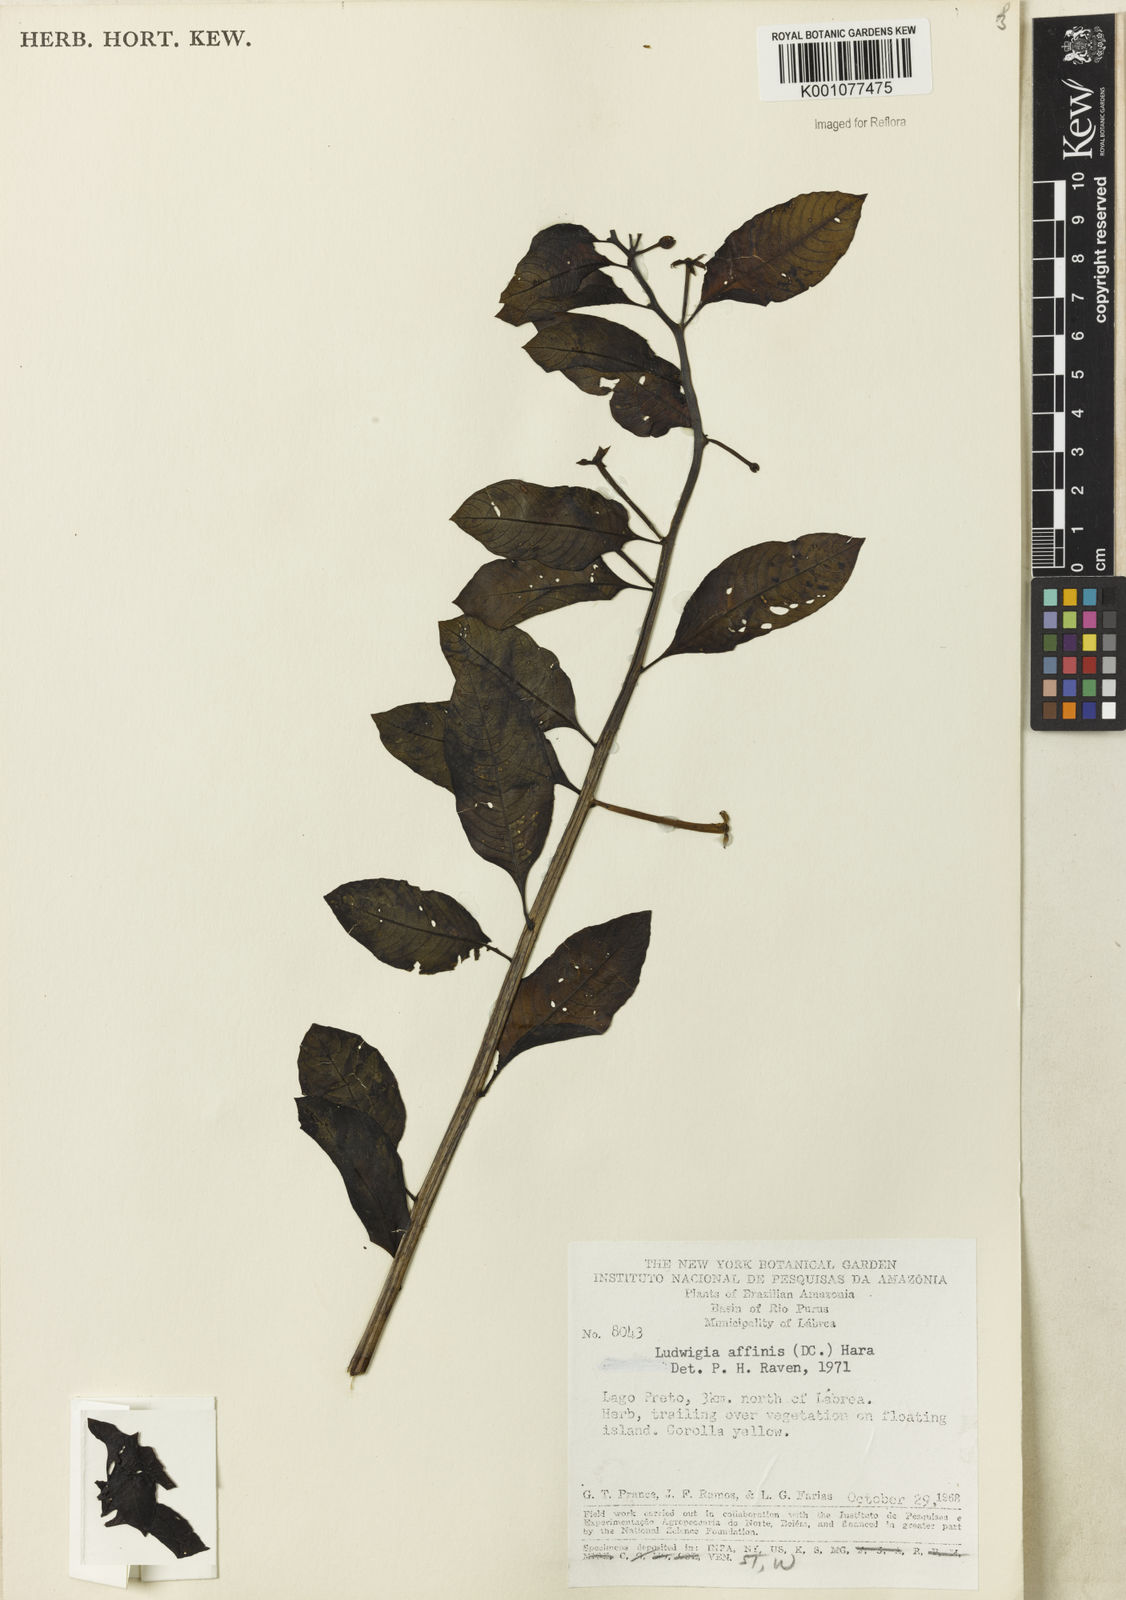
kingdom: Plantae
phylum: Tracheophyta
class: Magnoliopsida
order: Myrtales
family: Onagraceae
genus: Ludwigia
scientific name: Ludwigia affinis
